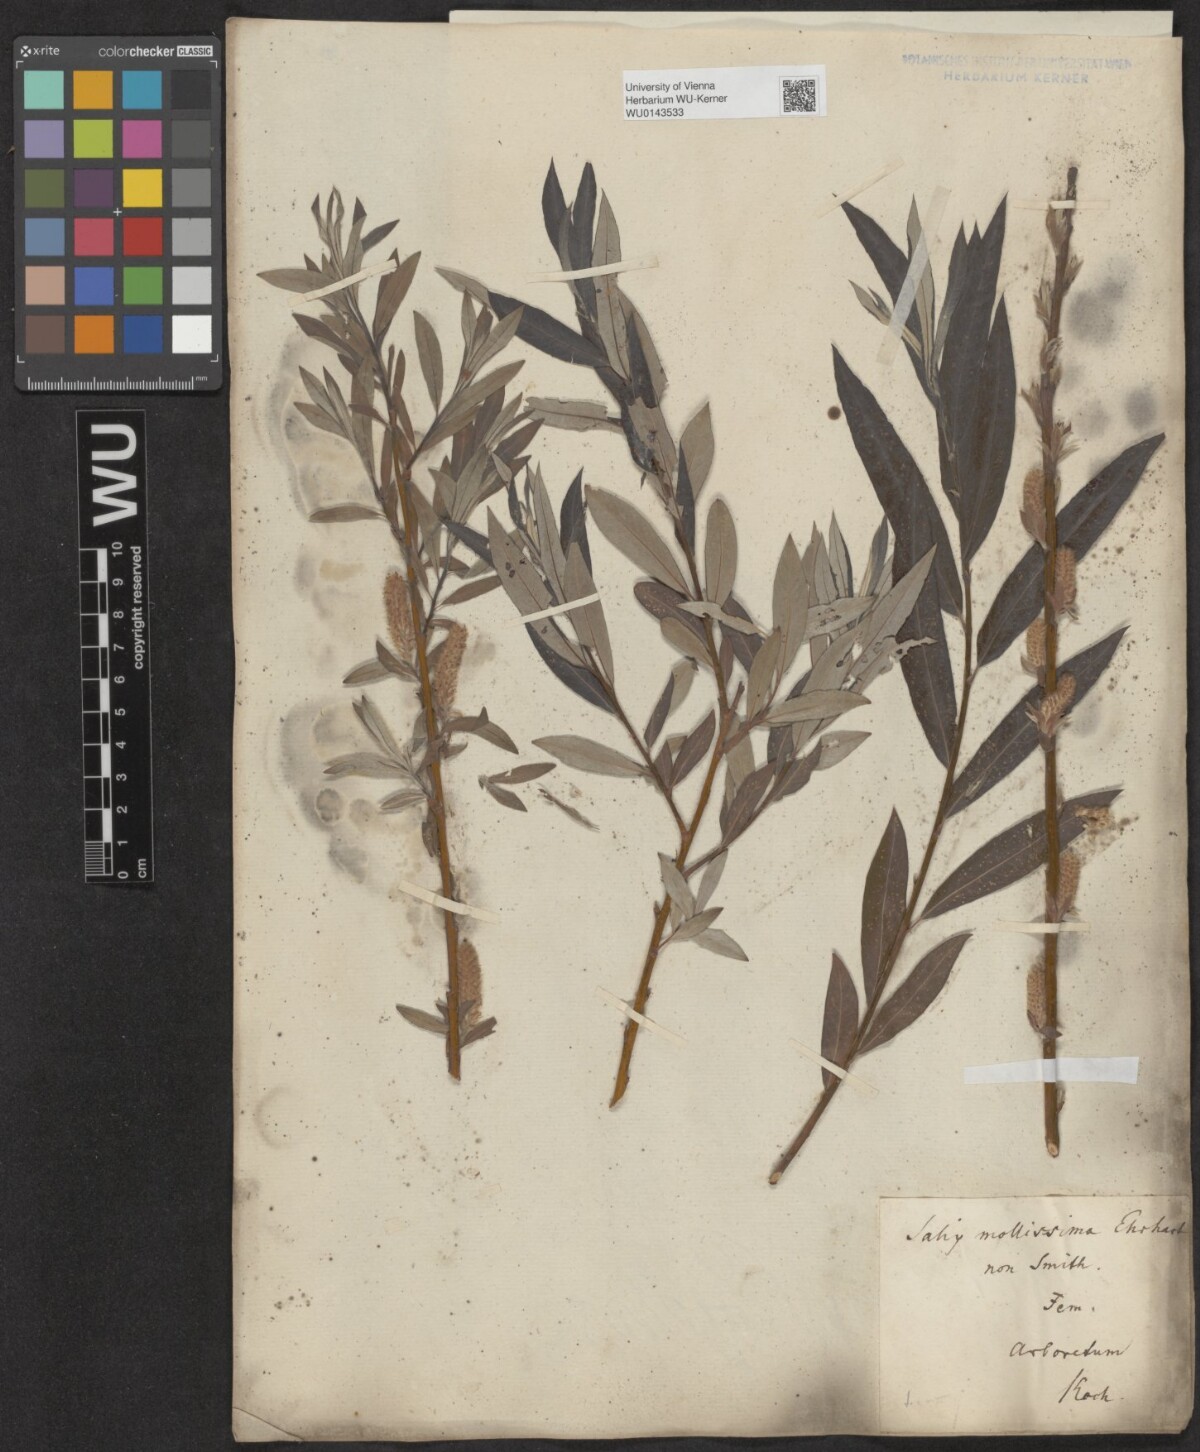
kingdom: Plantae
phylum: Tracheophyta
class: Magnoliopsida
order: Malpighiales
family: Salicaceae
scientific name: Salicaceae
